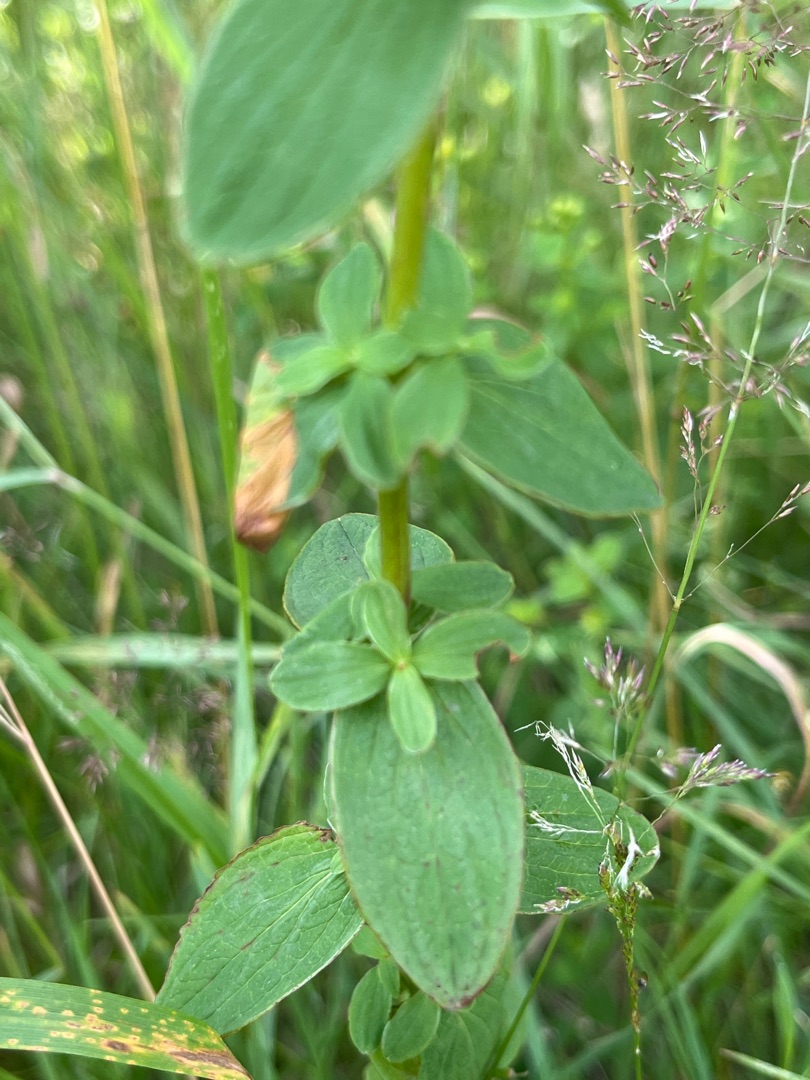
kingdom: Plantae
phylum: Tracheophyta
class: Magnoliopsida
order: Malpighiales
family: Hypericaceae
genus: Hypericum
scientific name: Hypericum maculatum
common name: Kantet perikon
